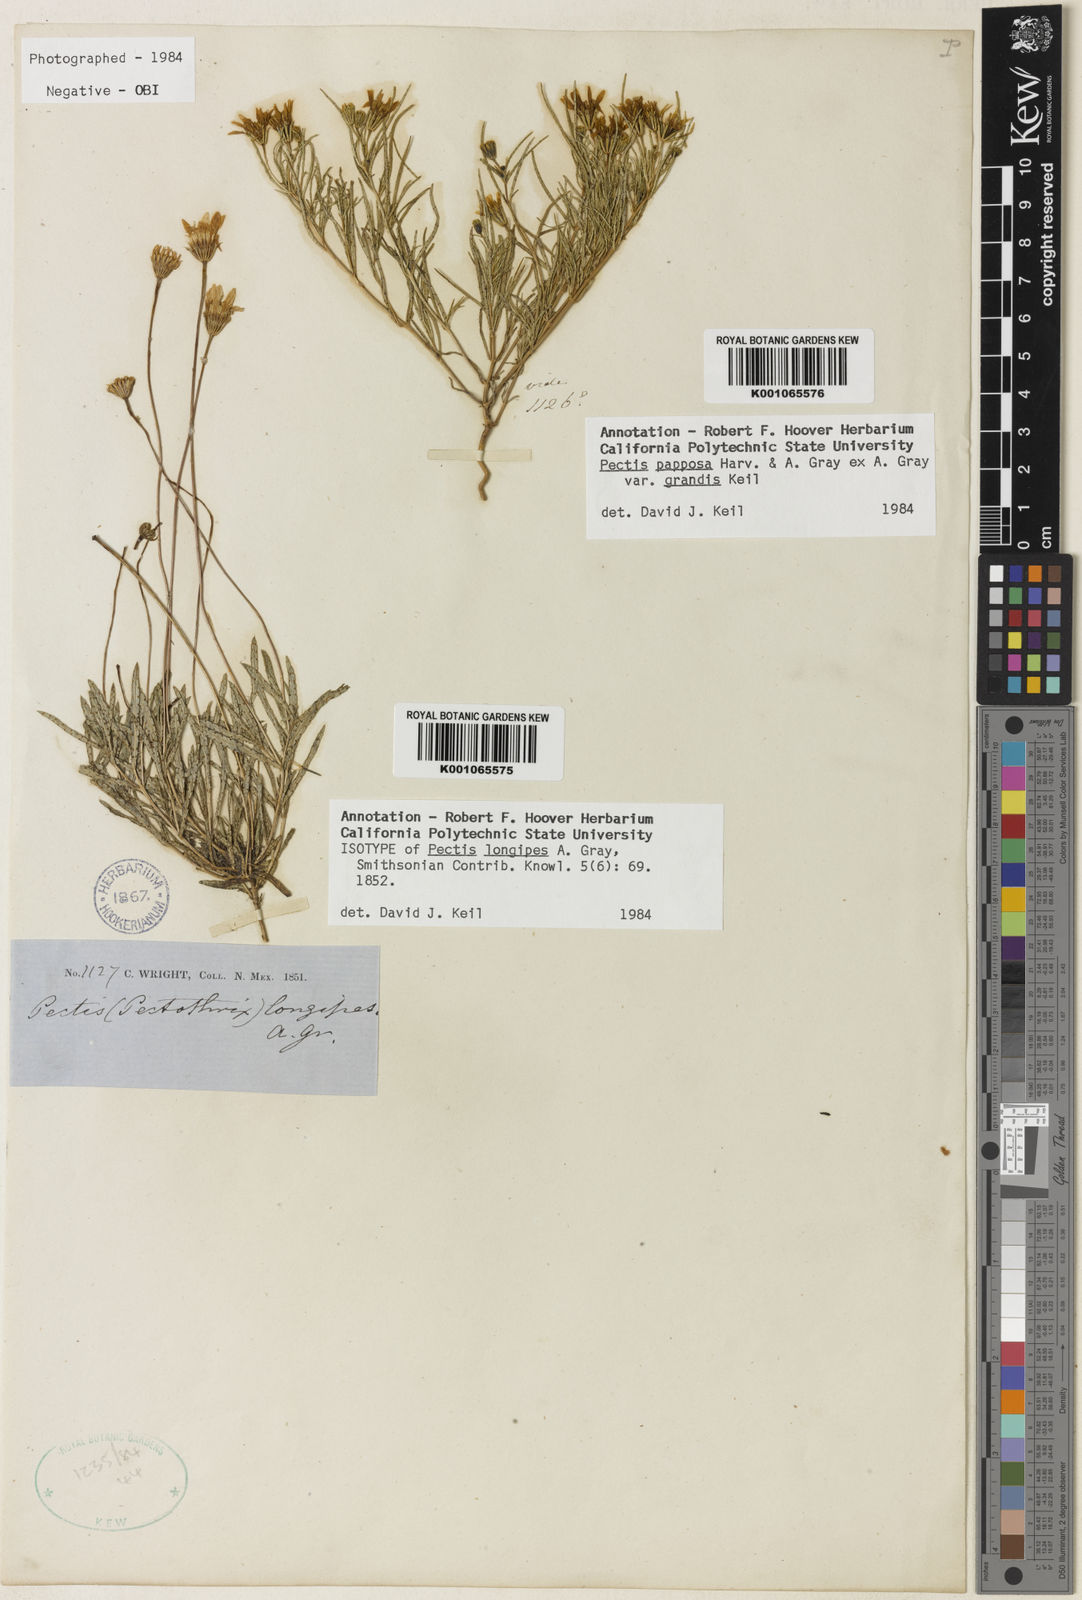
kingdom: Plantae
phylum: Tracheophyta
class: Magnoliopsida
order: Asterales
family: Asteraceae
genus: Pectis
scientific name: Pectis longipes
